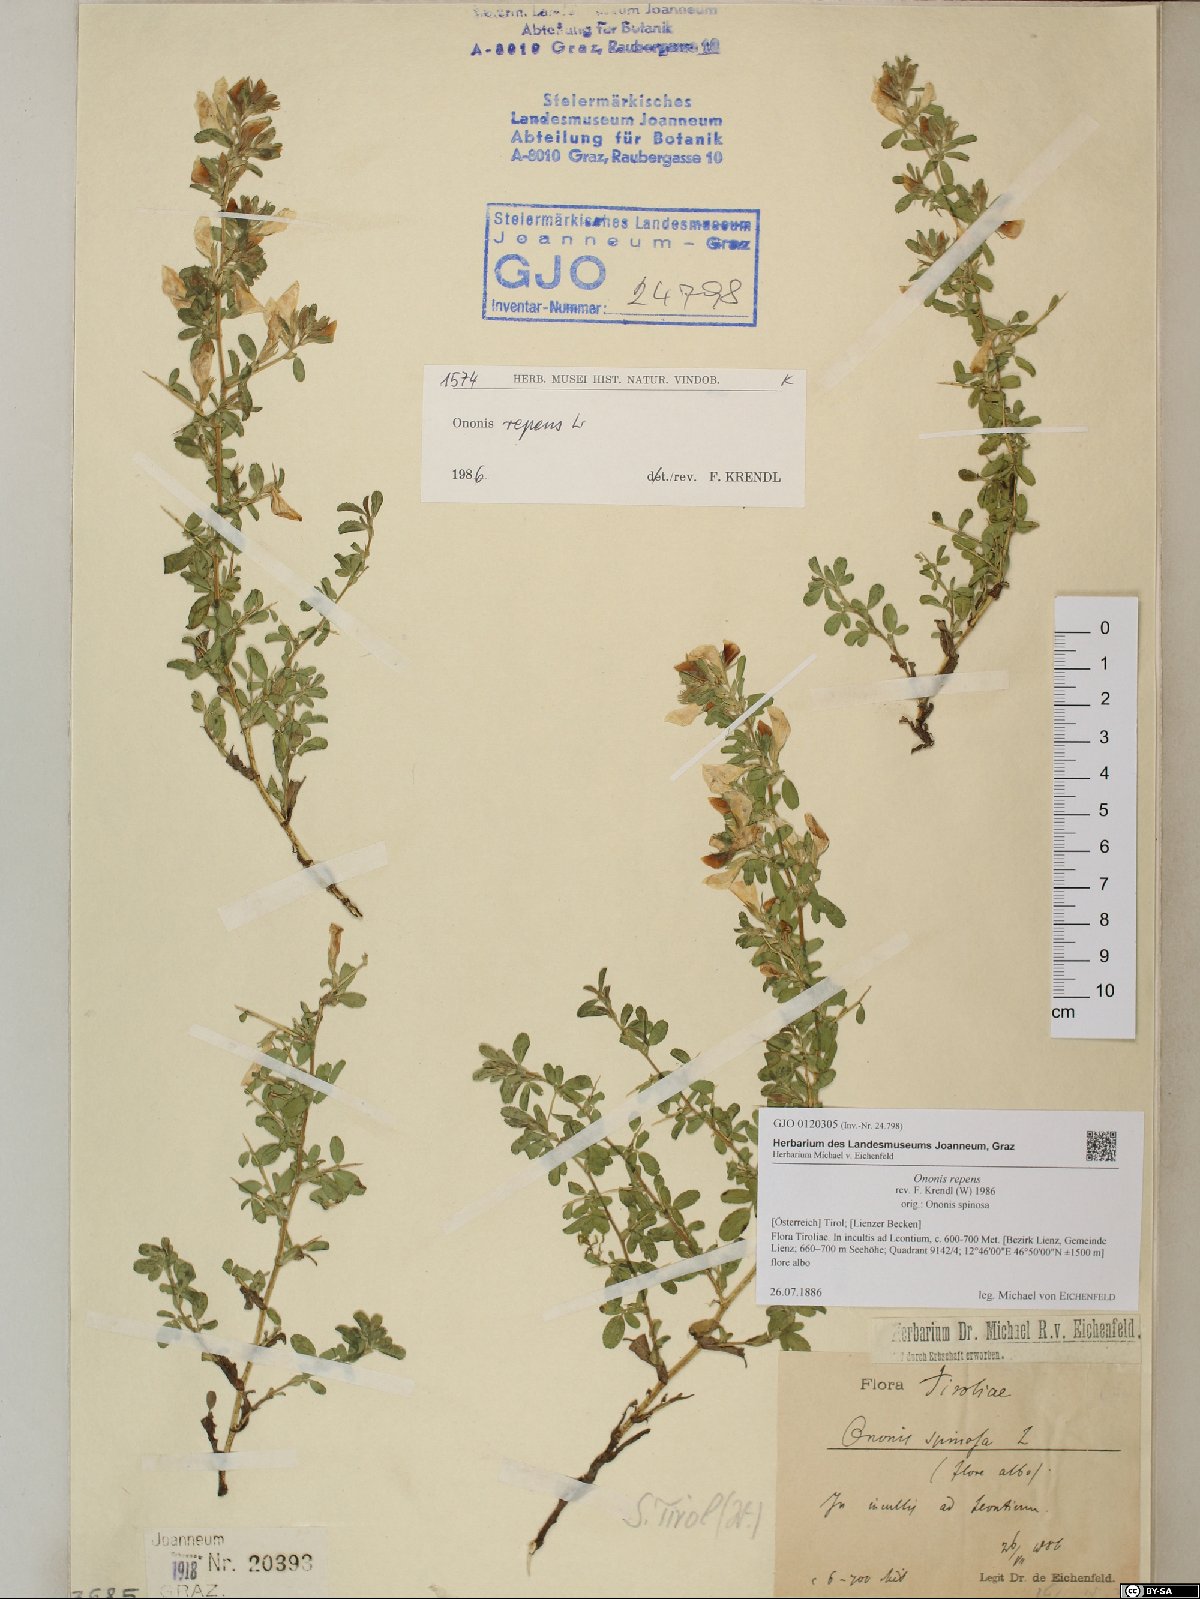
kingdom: Plantae
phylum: Tracheophyta
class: Magnoliopsida
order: Fabales
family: Fabaceae
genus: Ononis
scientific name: Ononis spinosa
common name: Spiny restharrow
